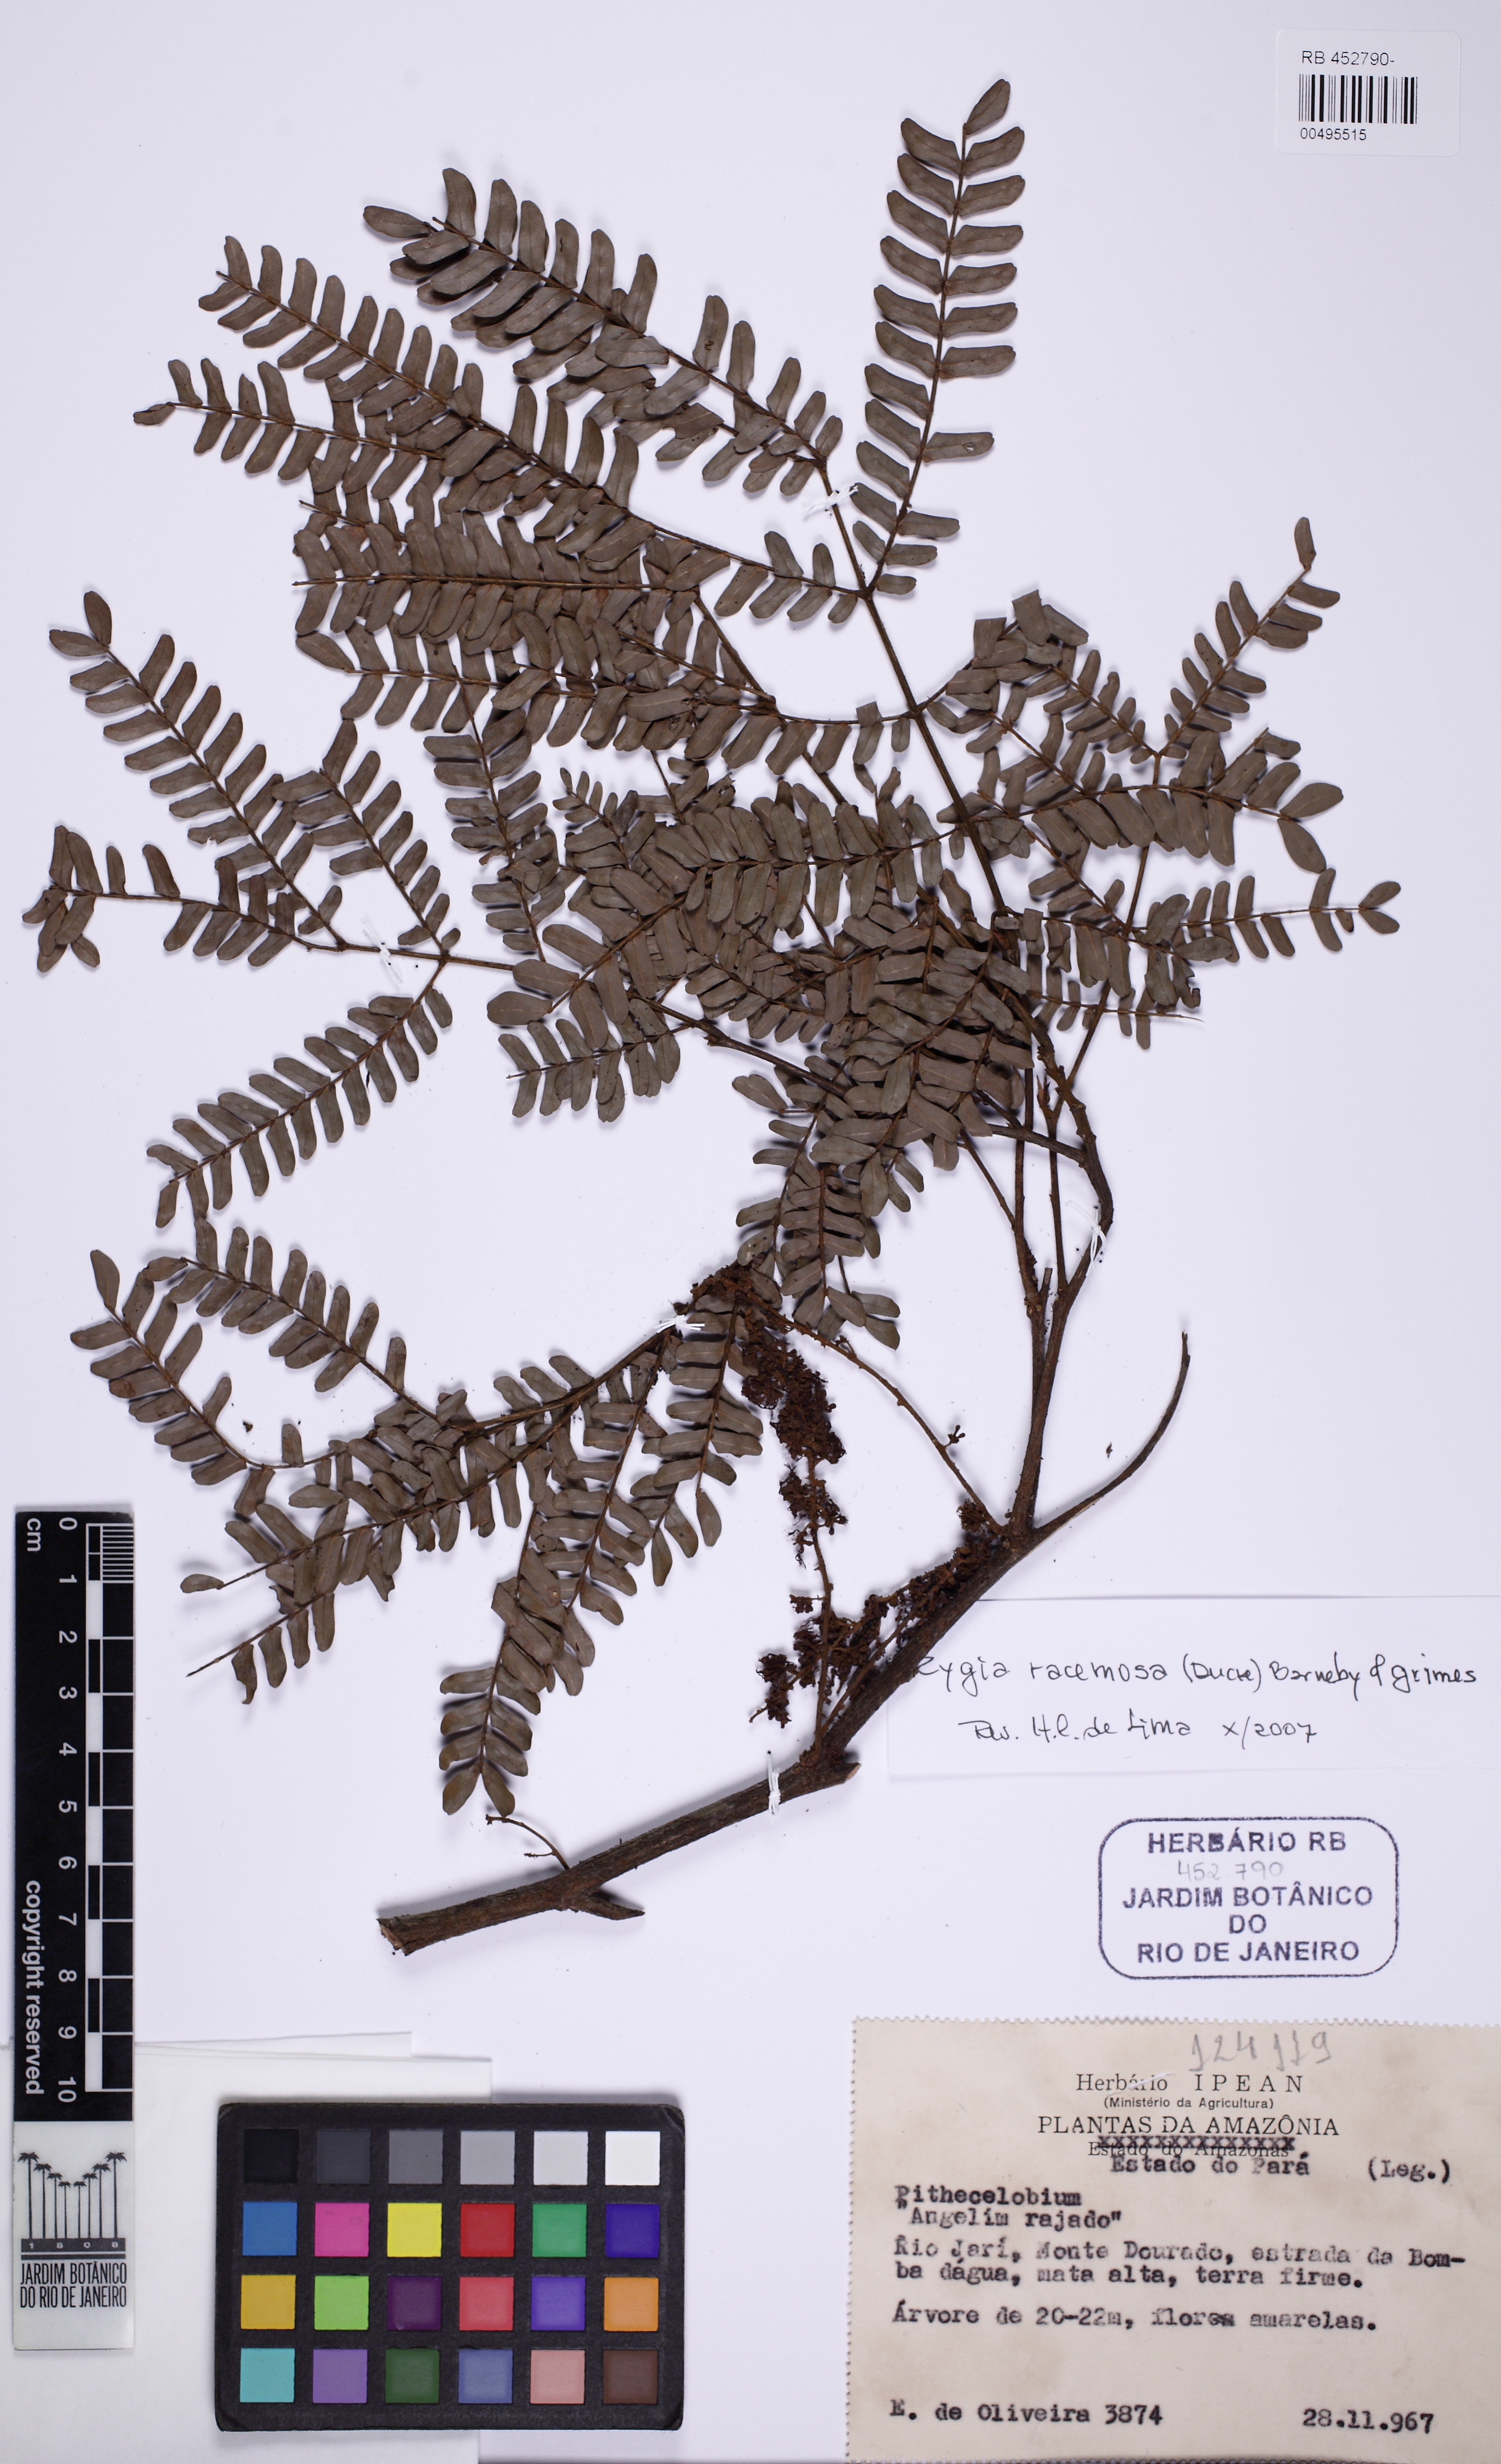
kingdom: Plantae
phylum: Tracheophyta
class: Magnoliopsida
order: Fabales
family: Fabaceae
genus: Zygia
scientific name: Zygia racemosa
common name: Marblewood
